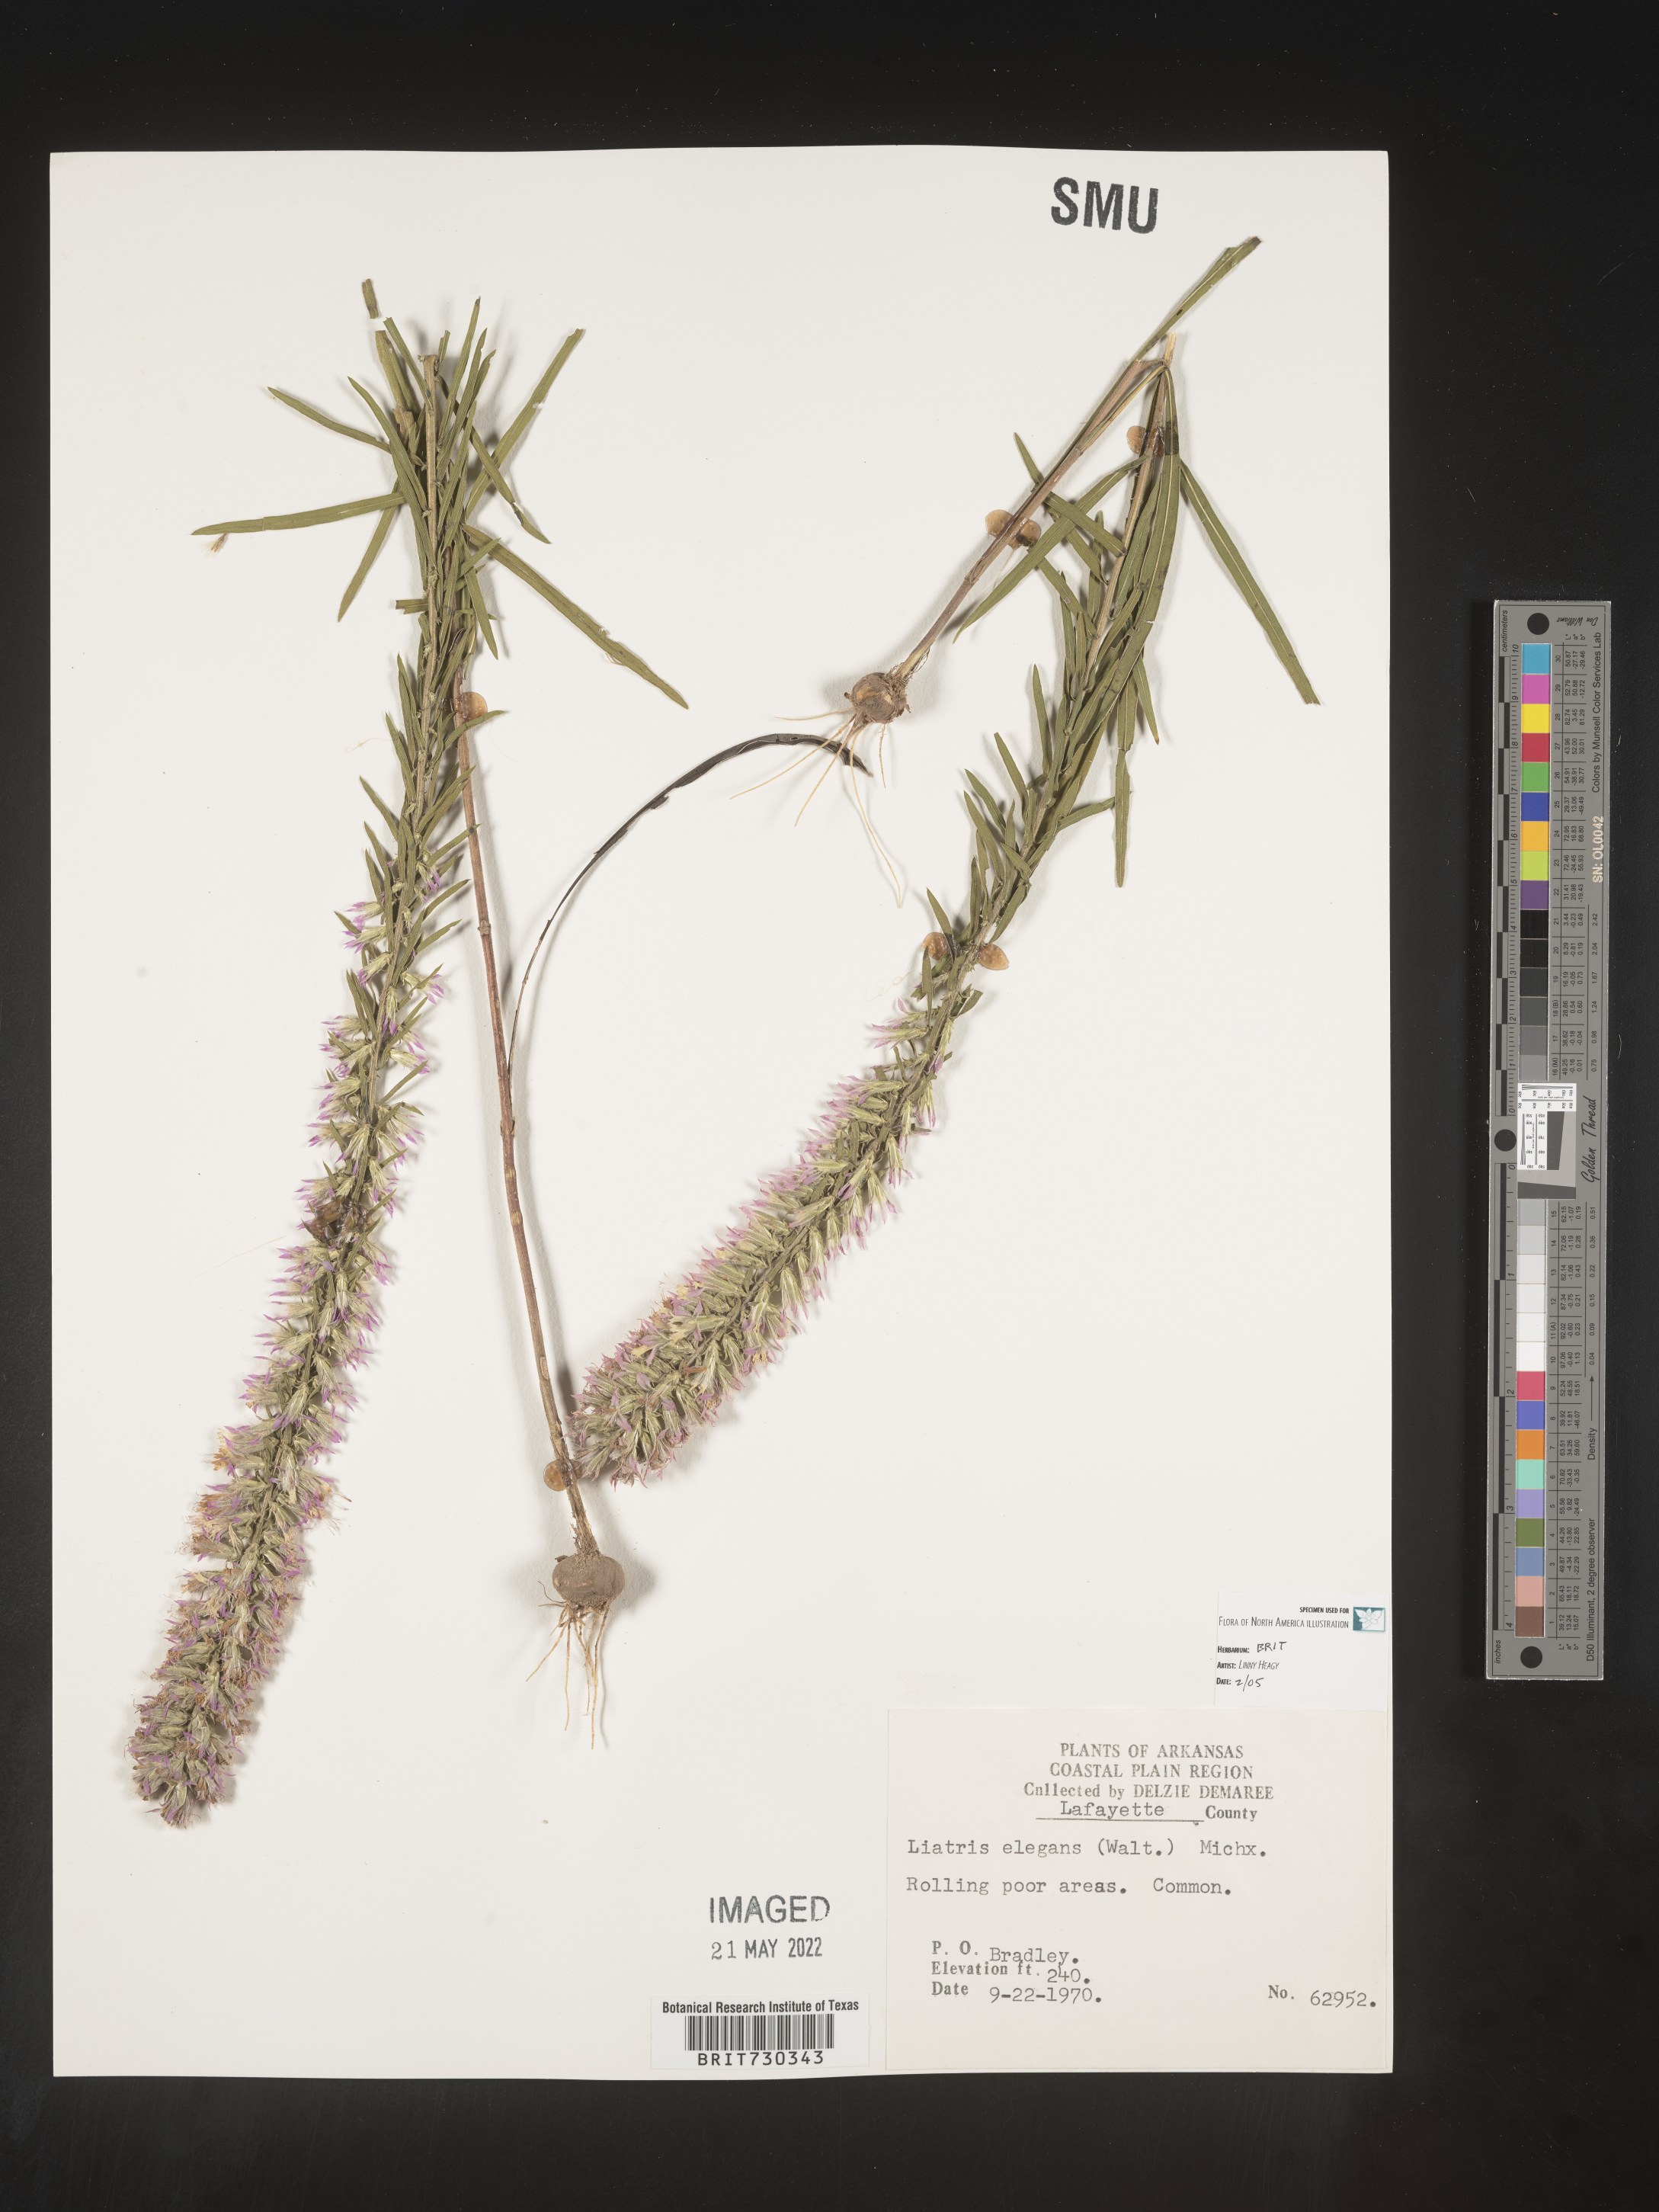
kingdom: Plantae
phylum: Tracheophyta
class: Magnoliopsida
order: Asterales
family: Asteraceae
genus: Liatris
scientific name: Liatris elegans
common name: Pinkscale gayfeather
